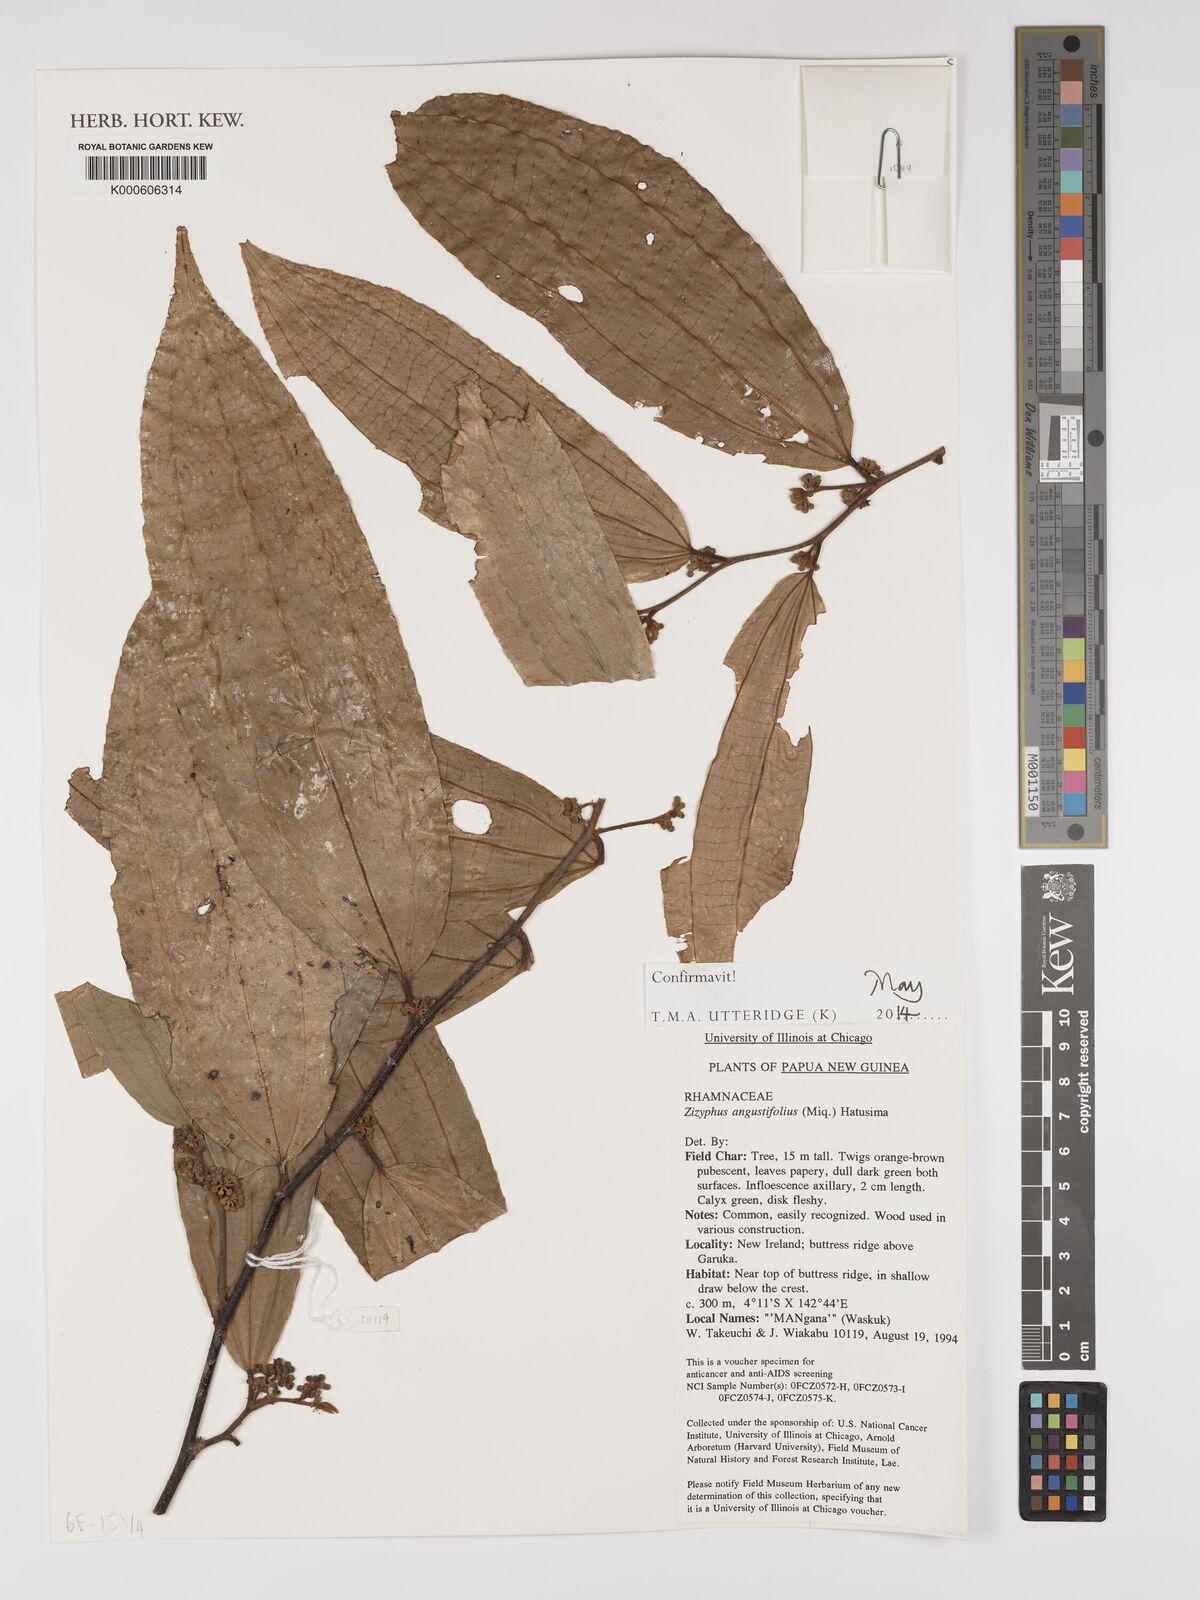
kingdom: Plantae
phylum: Tracheophyta
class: Magnoliopsida
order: Rosales
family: Rhamnaceae
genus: Ziziphus
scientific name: Ziziphus angustifolia
